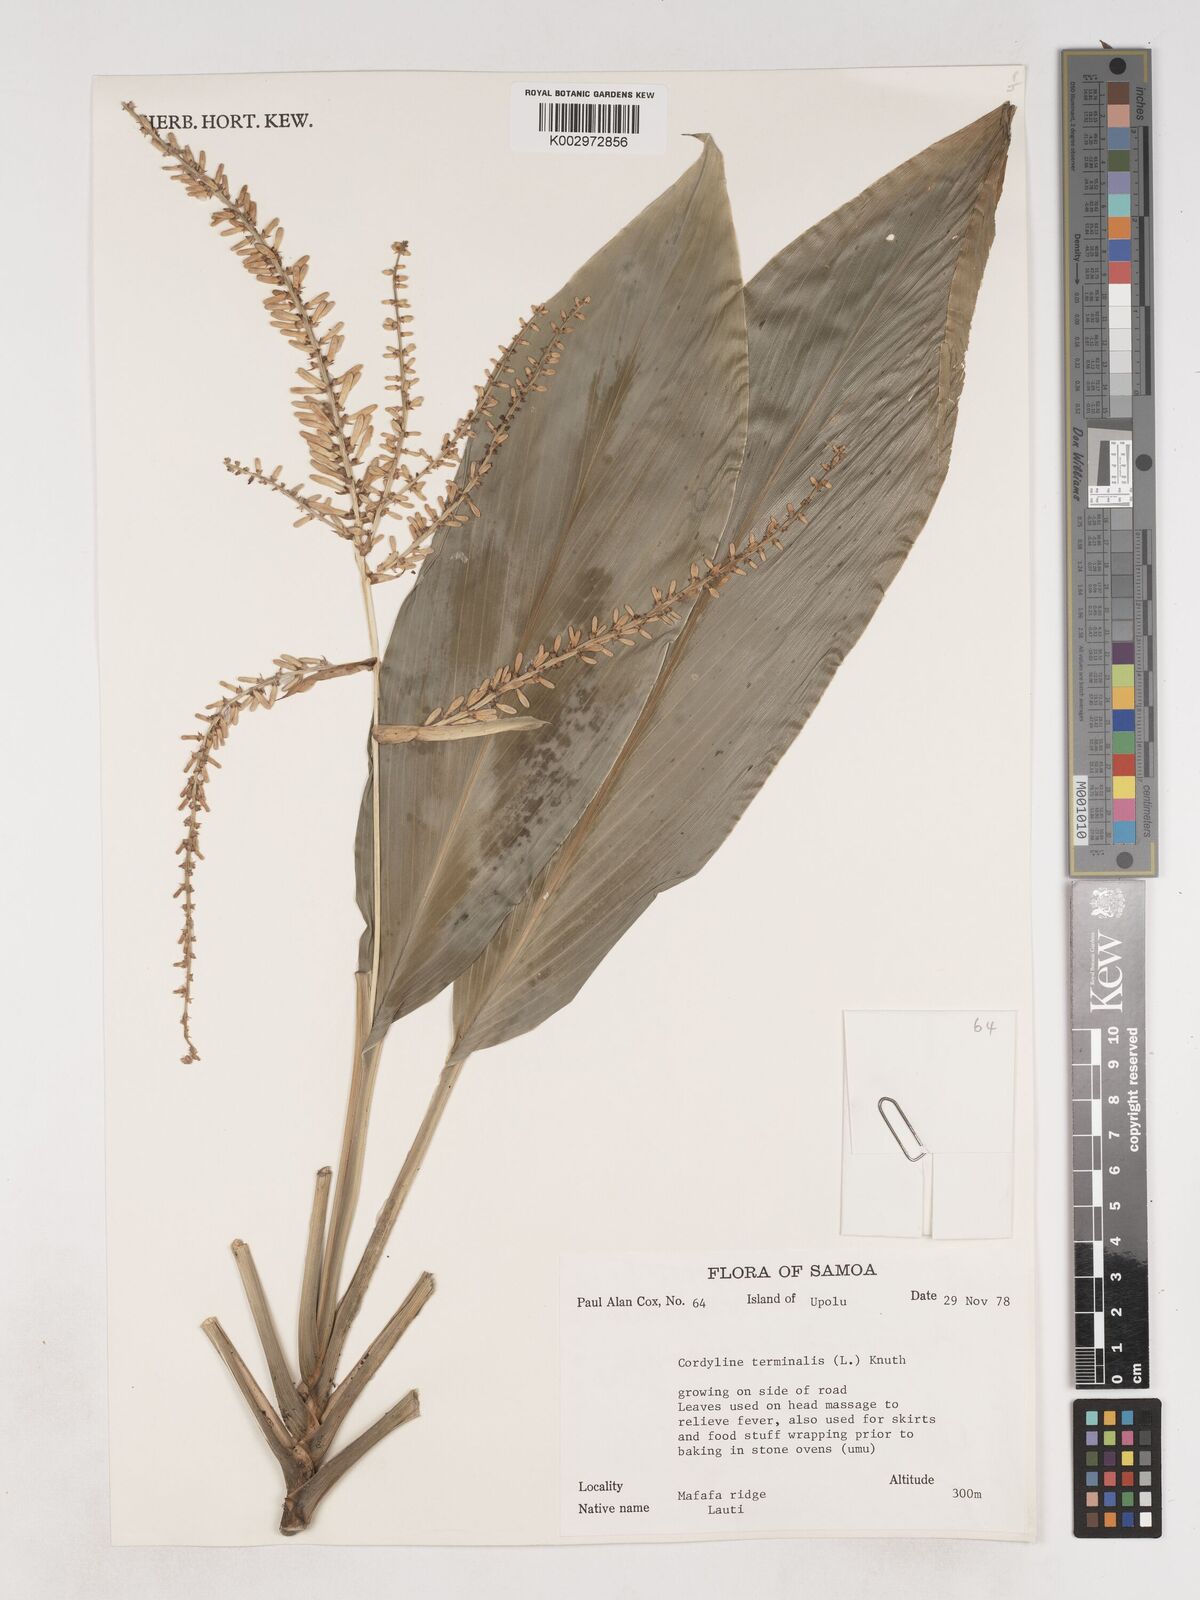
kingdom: Plantae
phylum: Tracheophyta
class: Liliopsida
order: Asparagales
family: Asparagaceae
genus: Cordyline
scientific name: Cordyline fruticosa
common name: Good-luck-plant
